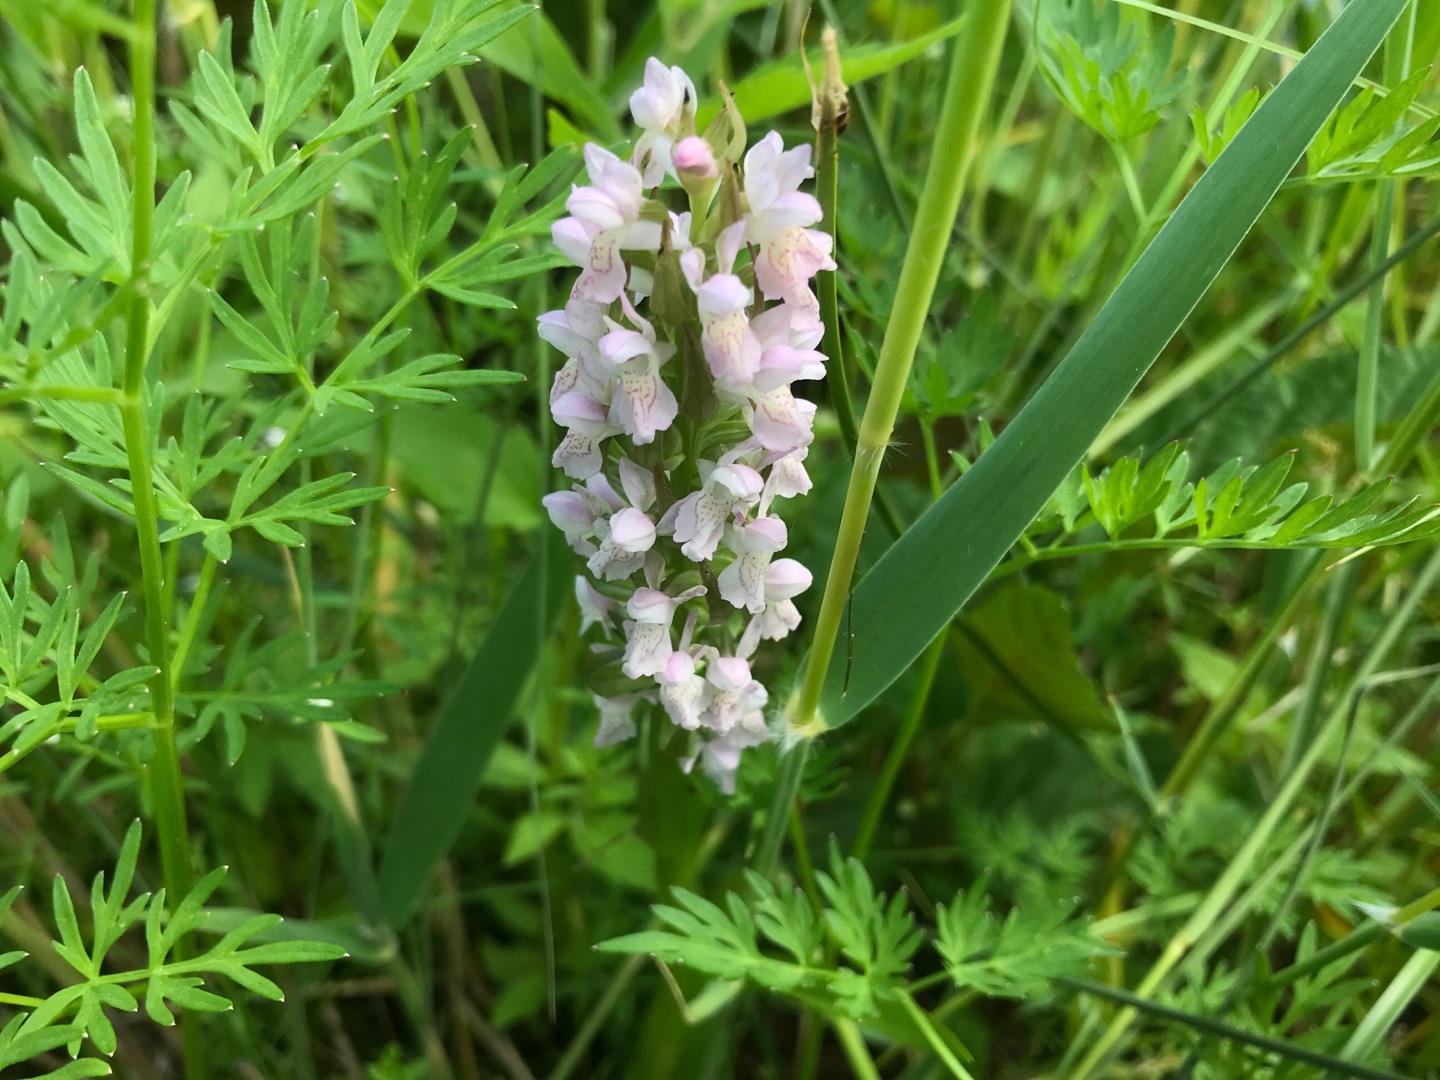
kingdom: Plantae
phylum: Tracheophyta
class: Liliopsida
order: Asparagales
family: Orchidaceae
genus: Dactylorhiza
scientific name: Dactylorhiza incarnata
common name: Kødfarvet gøgeurt (underart)
